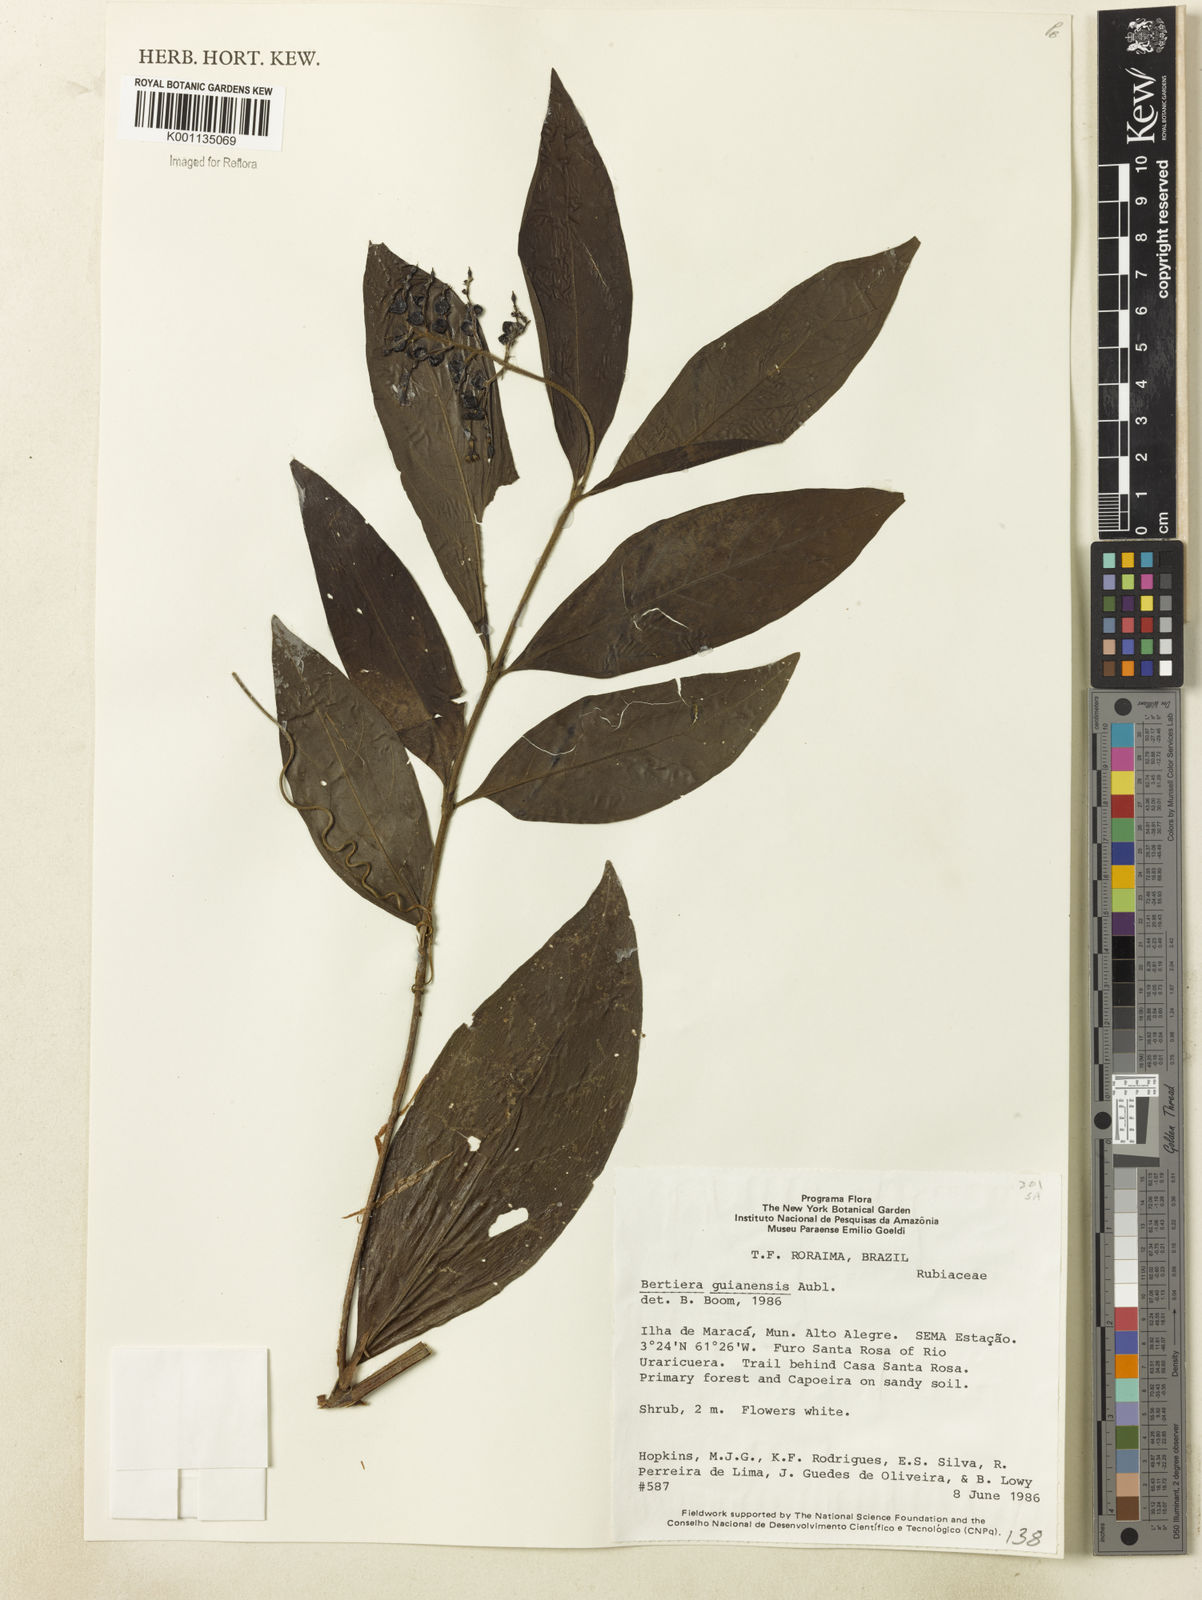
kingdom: Plantae
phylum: Tracheophyta
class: Magnoliopsida
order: Gentianales
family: Rubiaceae
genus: Bertiera
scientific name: Bertiera guianensis
